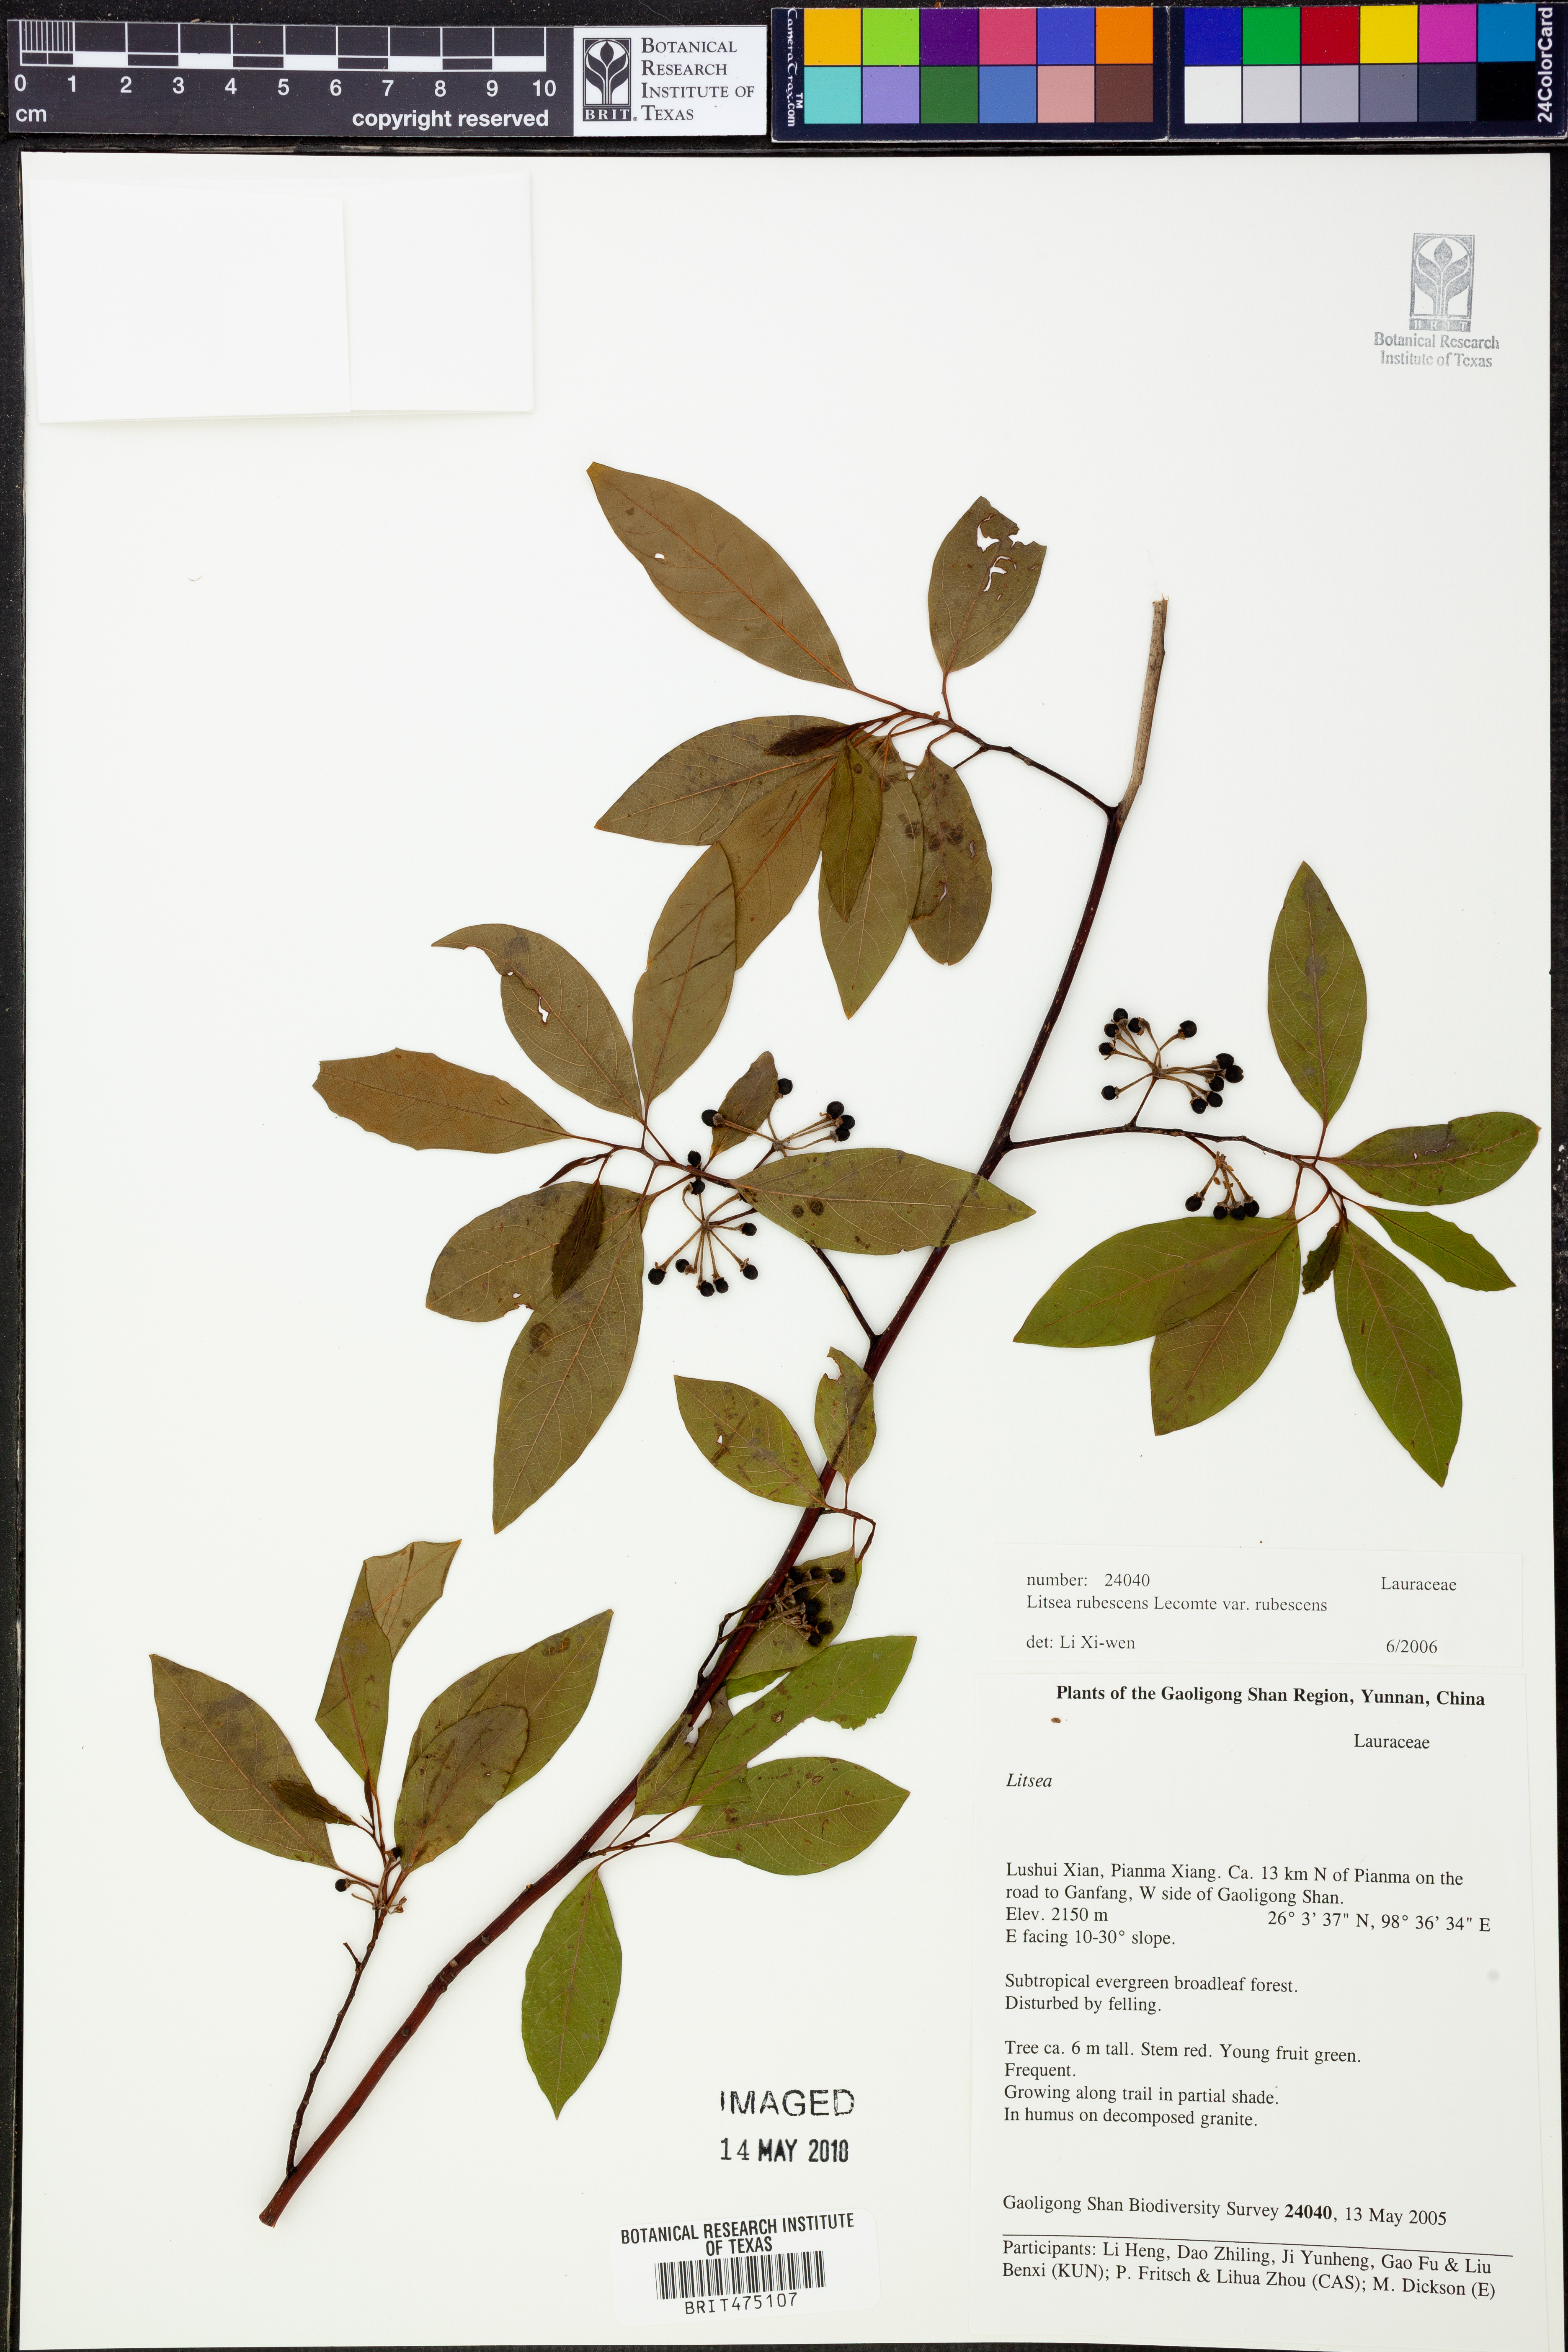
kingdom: Plantae
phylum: Tracheophyta
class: Magnoliopsida
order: Laurales
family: Lauraceae
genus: Litsea
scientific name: Litsea rubescens
